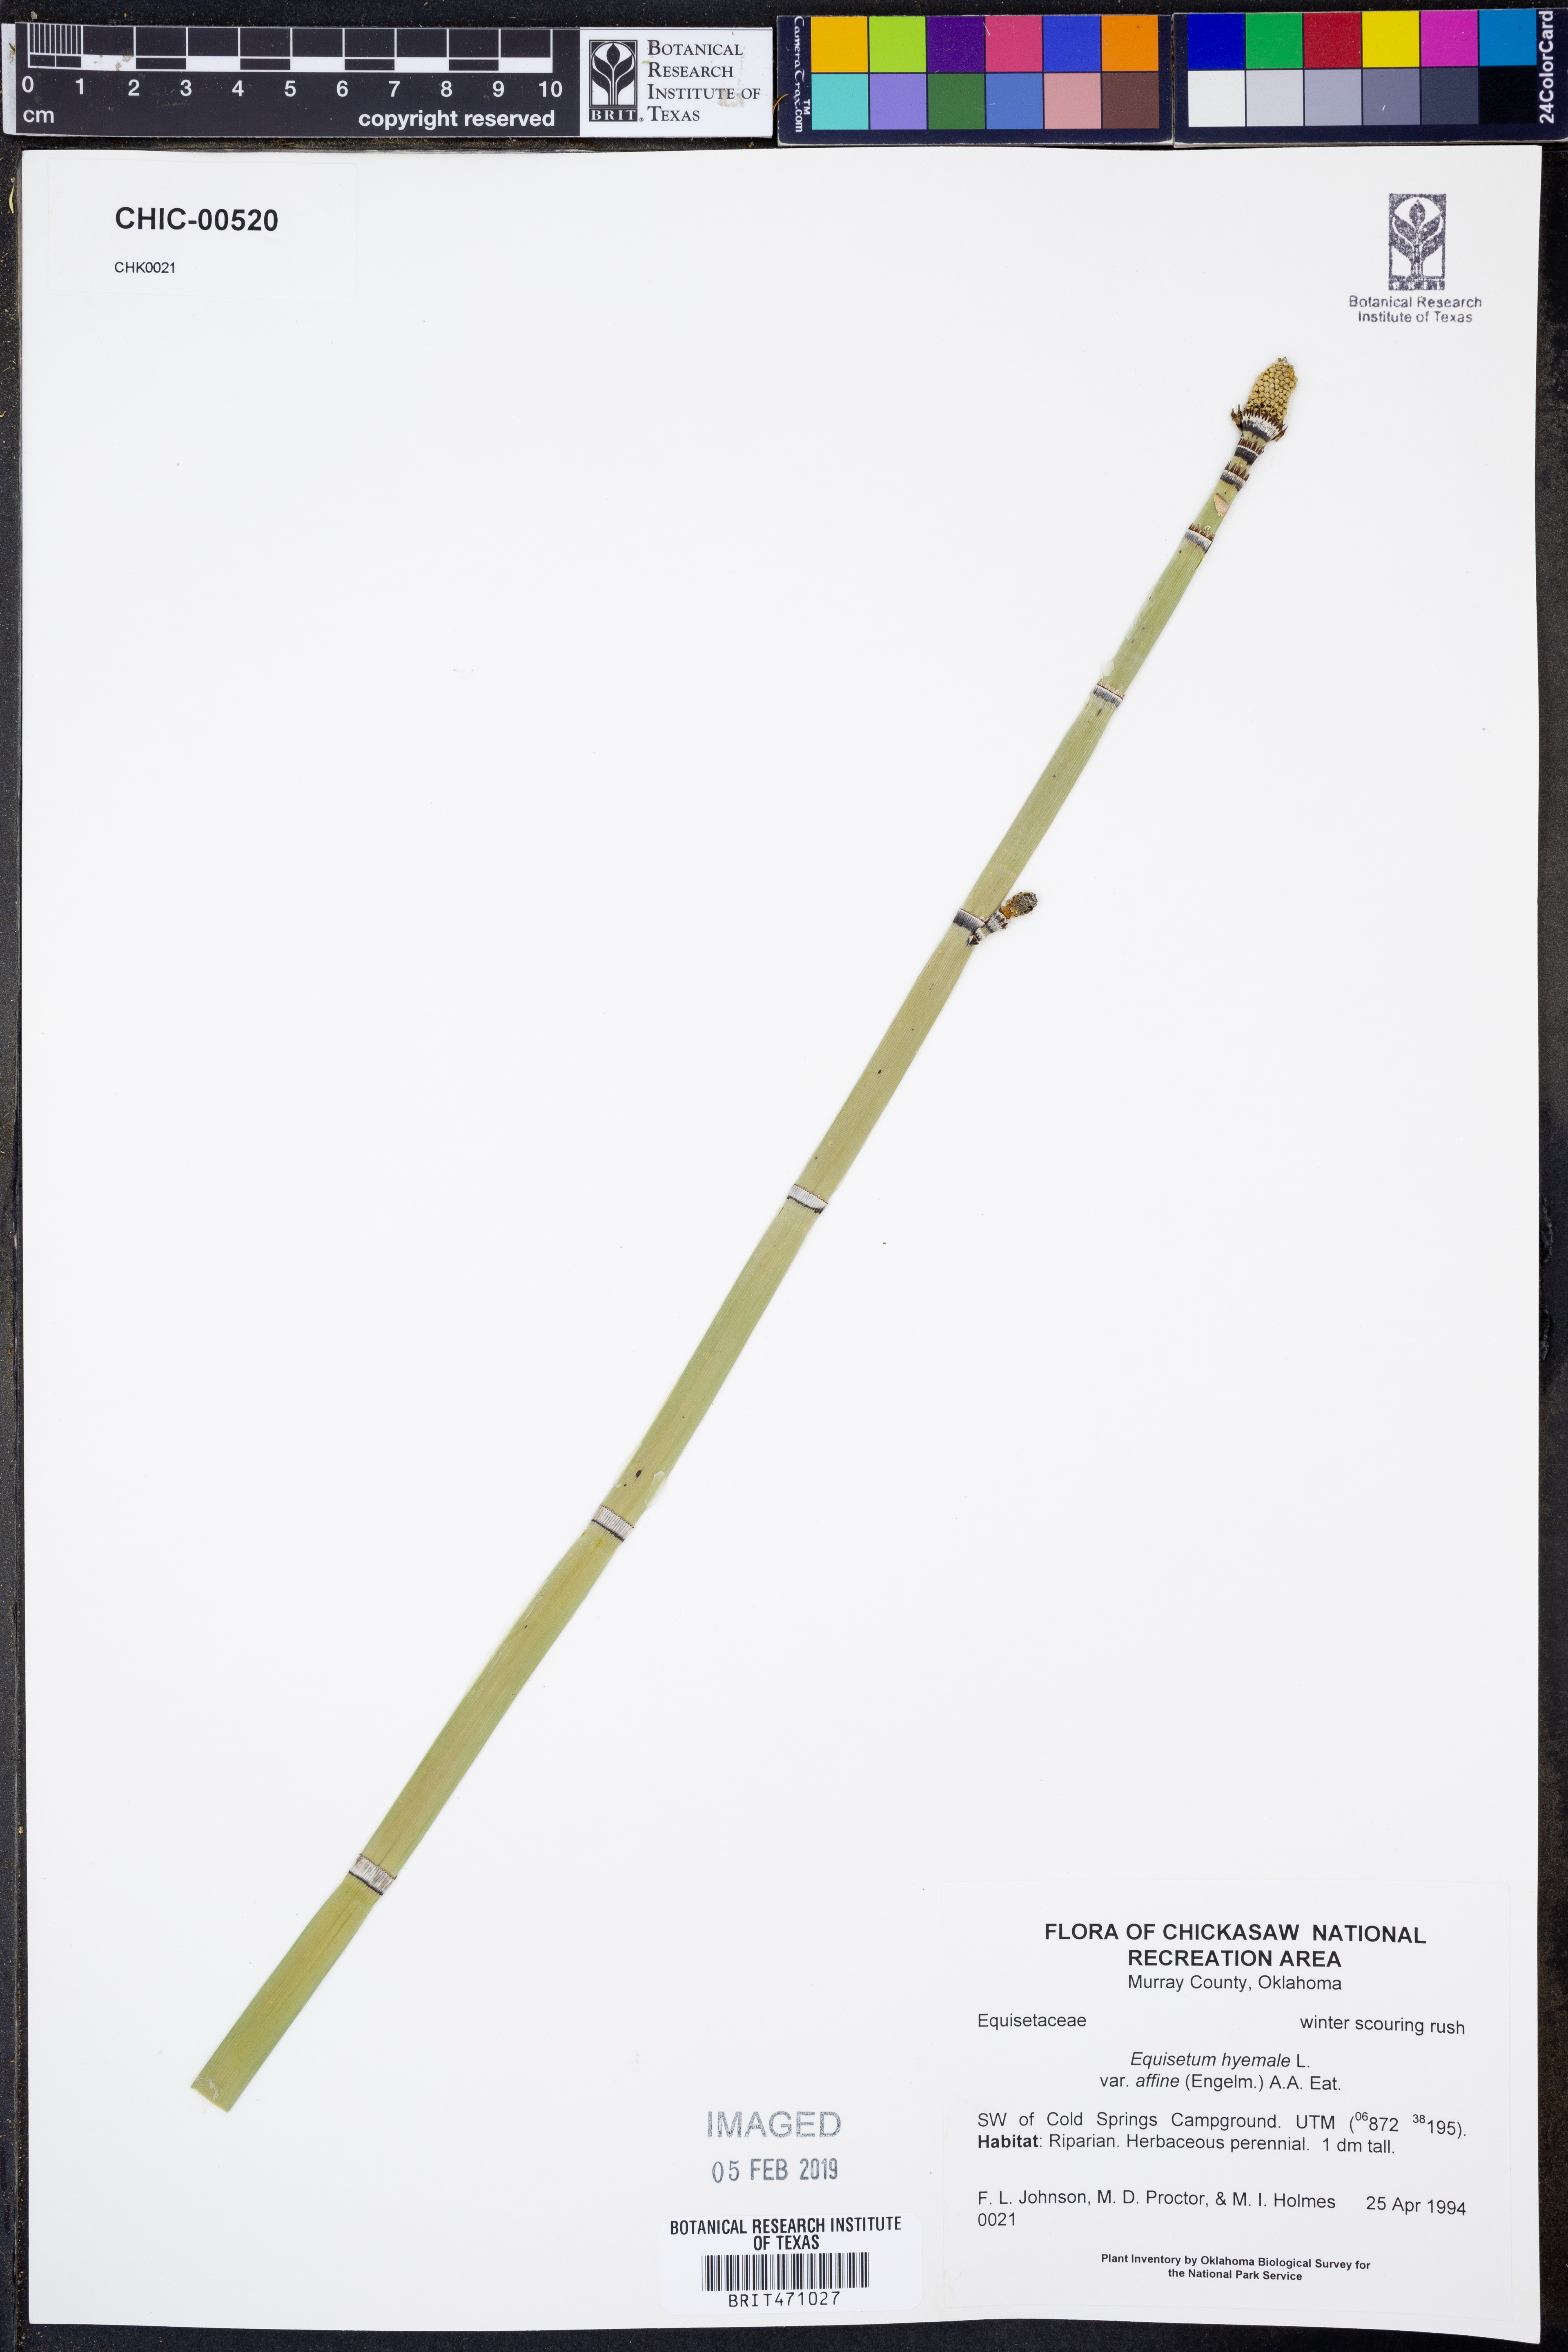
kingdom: Plantae
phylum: Tracheophyta
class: Polypodiopsida
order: Equisetales
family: Equisetaceae
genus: Equisetum
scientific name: Equisetum praealtum
